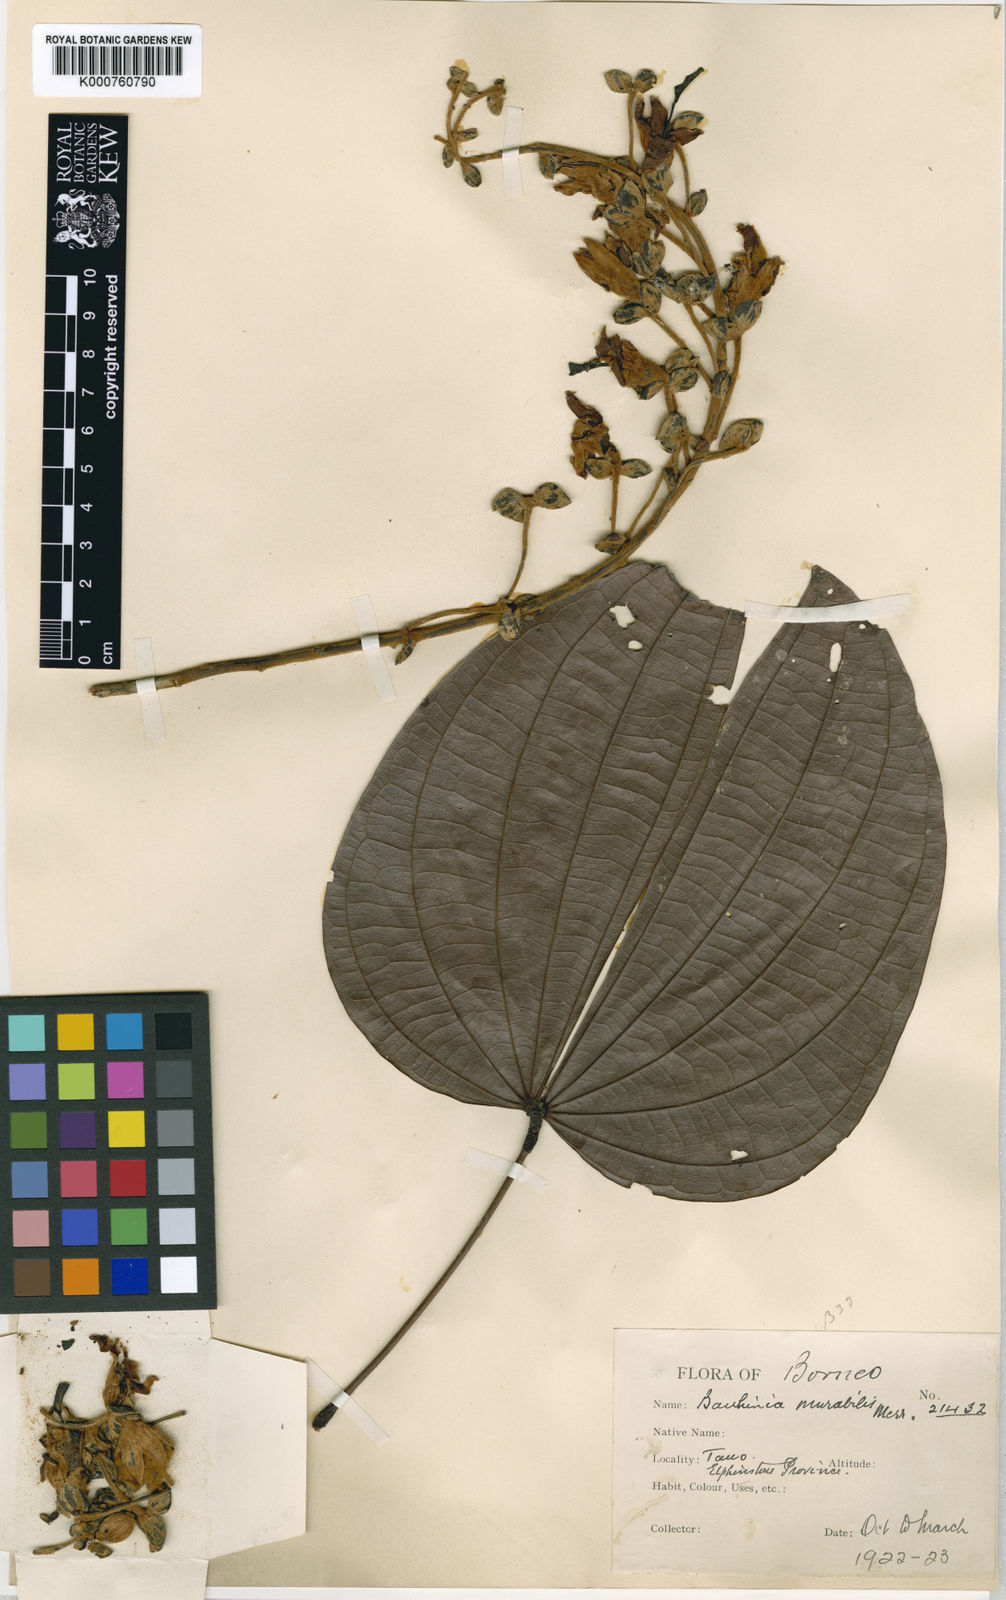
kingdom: Plantae
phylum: Tracheophyta
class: Magnoliopsida
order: Fabales
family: Fabaceae
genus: Bauhinia
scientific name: Bauhinia diptera
